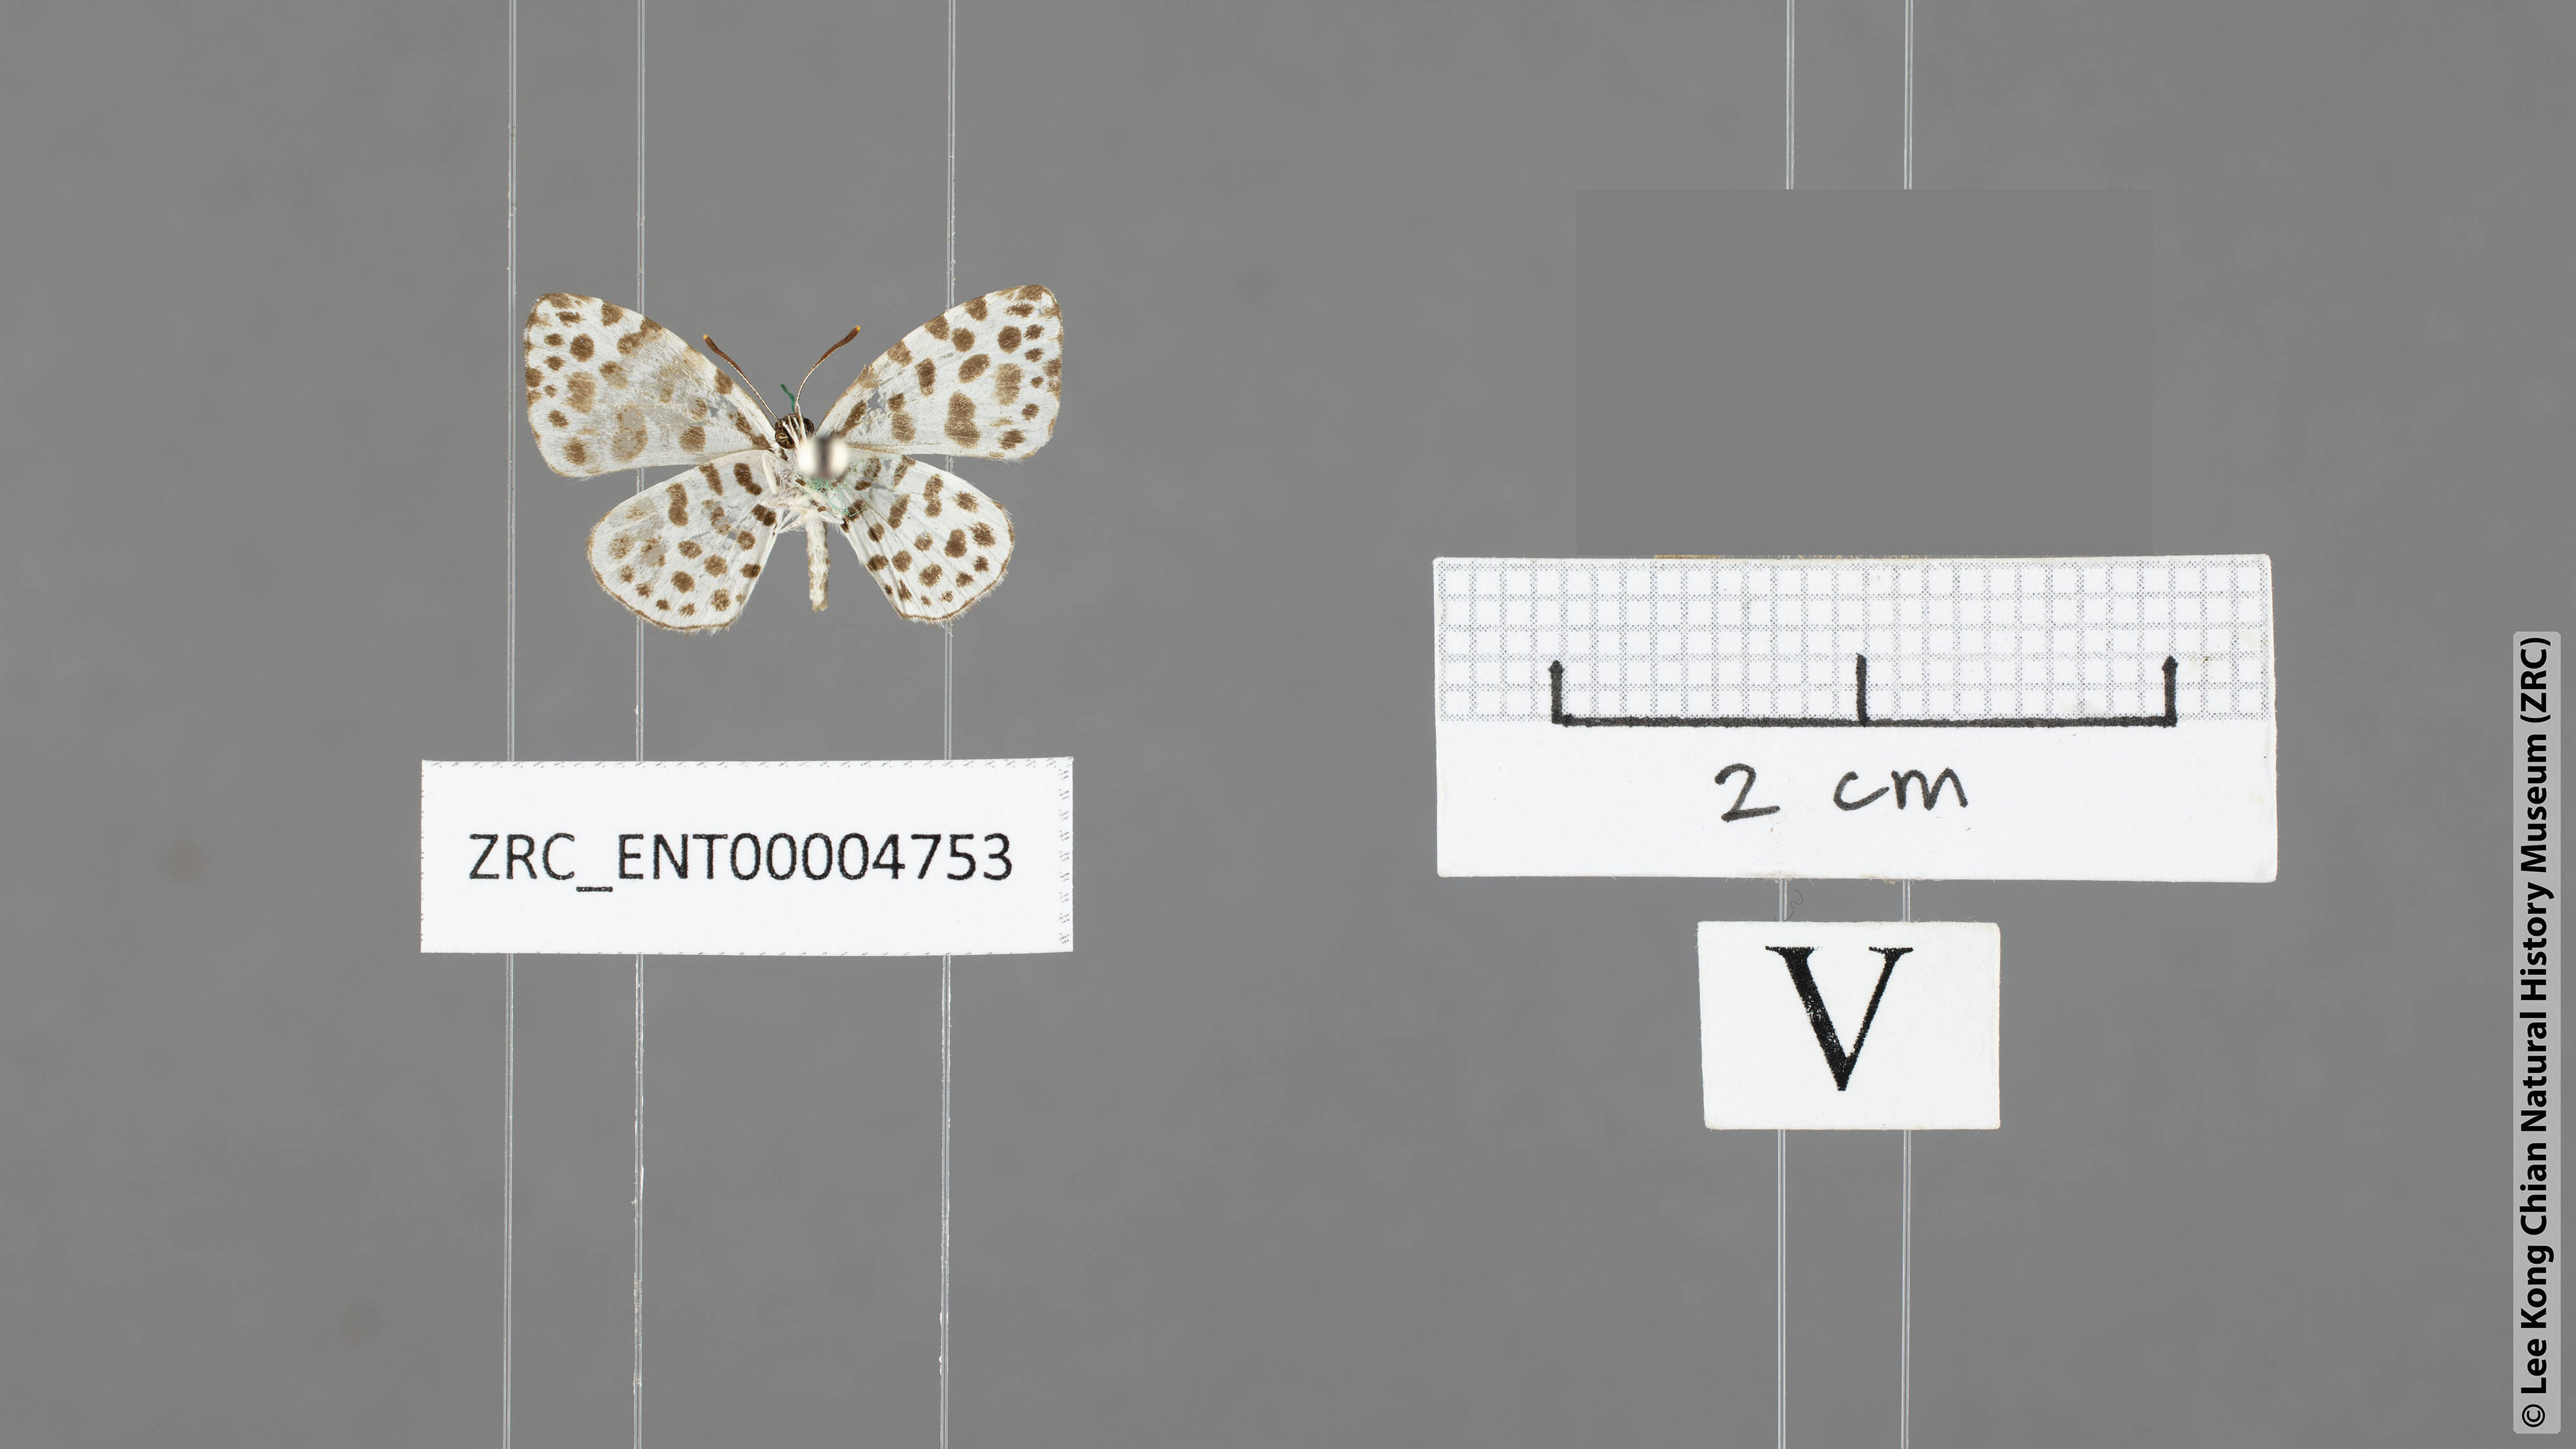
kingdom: Animalia
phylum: Arthropoda
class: Insecta
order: Lepidoptera
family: Lycaenidae
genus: Taraka
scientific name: Taraka hamada
